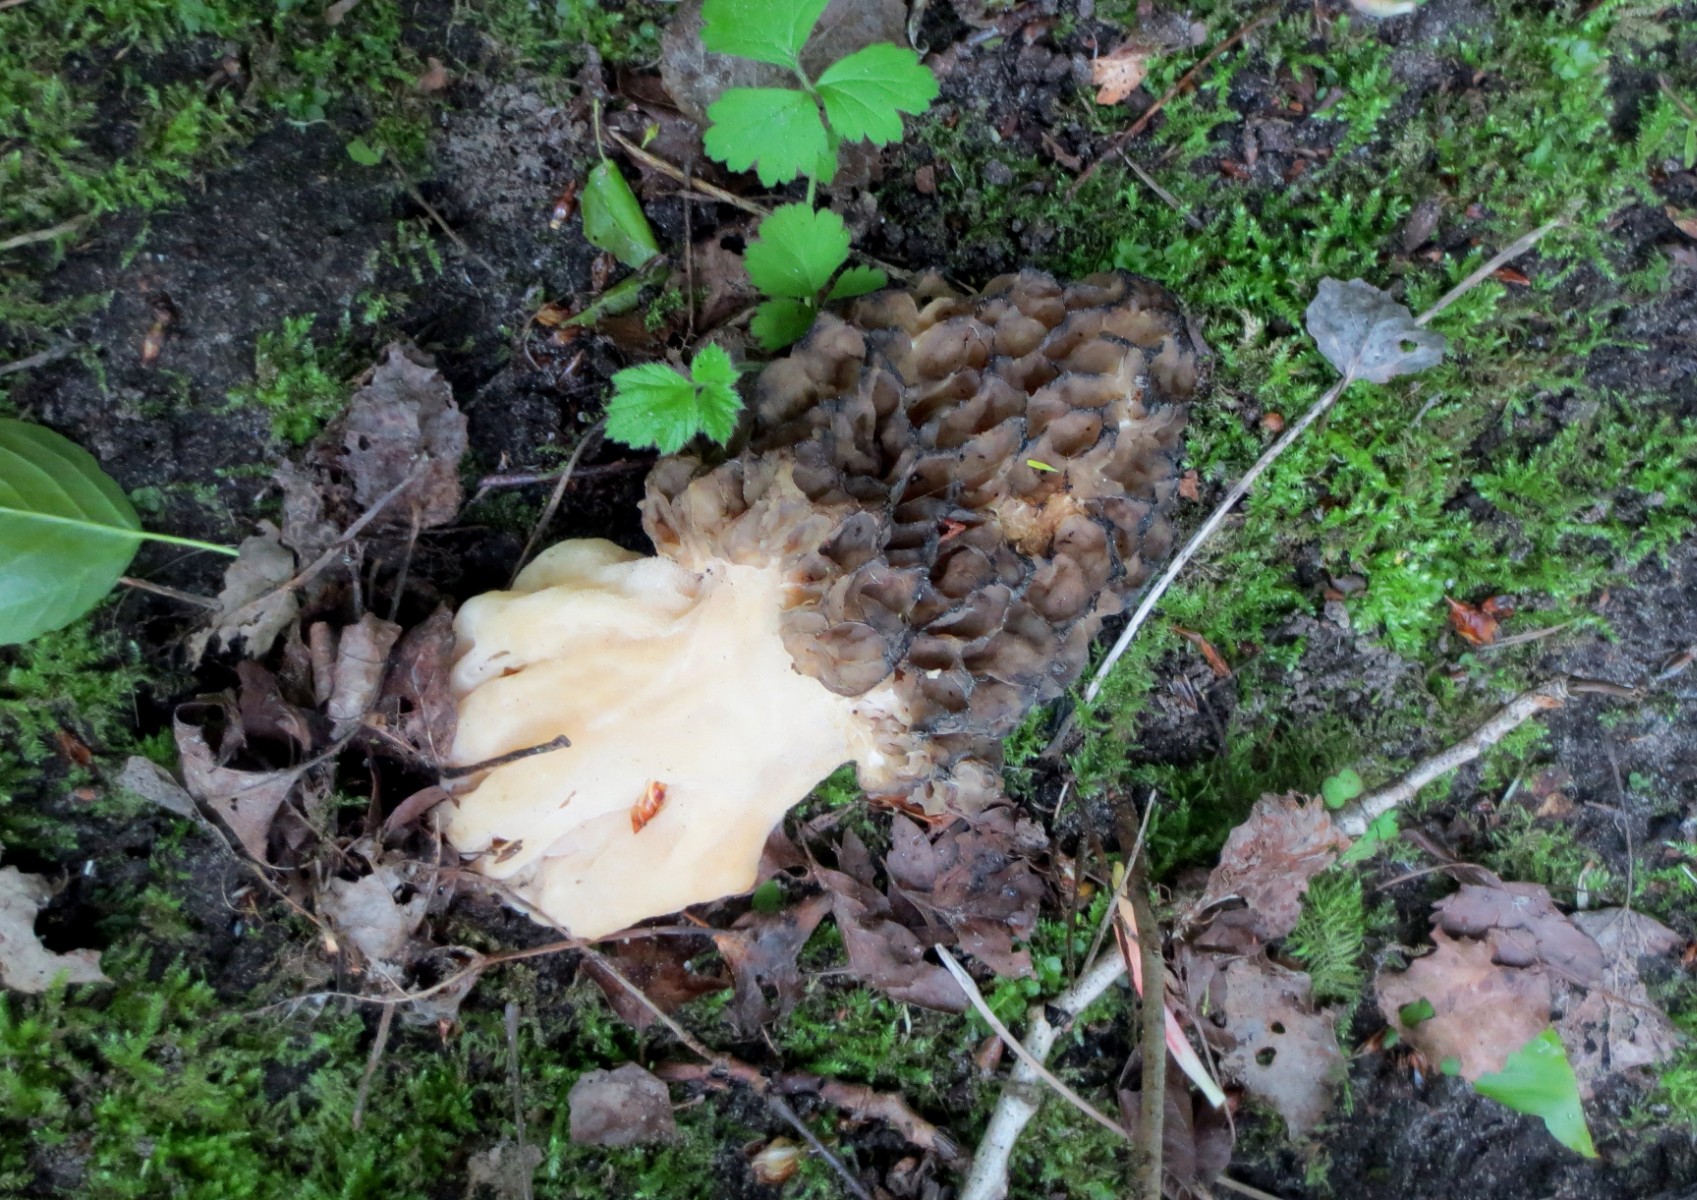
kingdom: Fungi
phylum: Ascomycota
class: Pezizomycetes
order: Pezizales
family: Morchellaceae
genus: Morchella
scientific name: Morchella esculenta
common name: almindelig morkel
